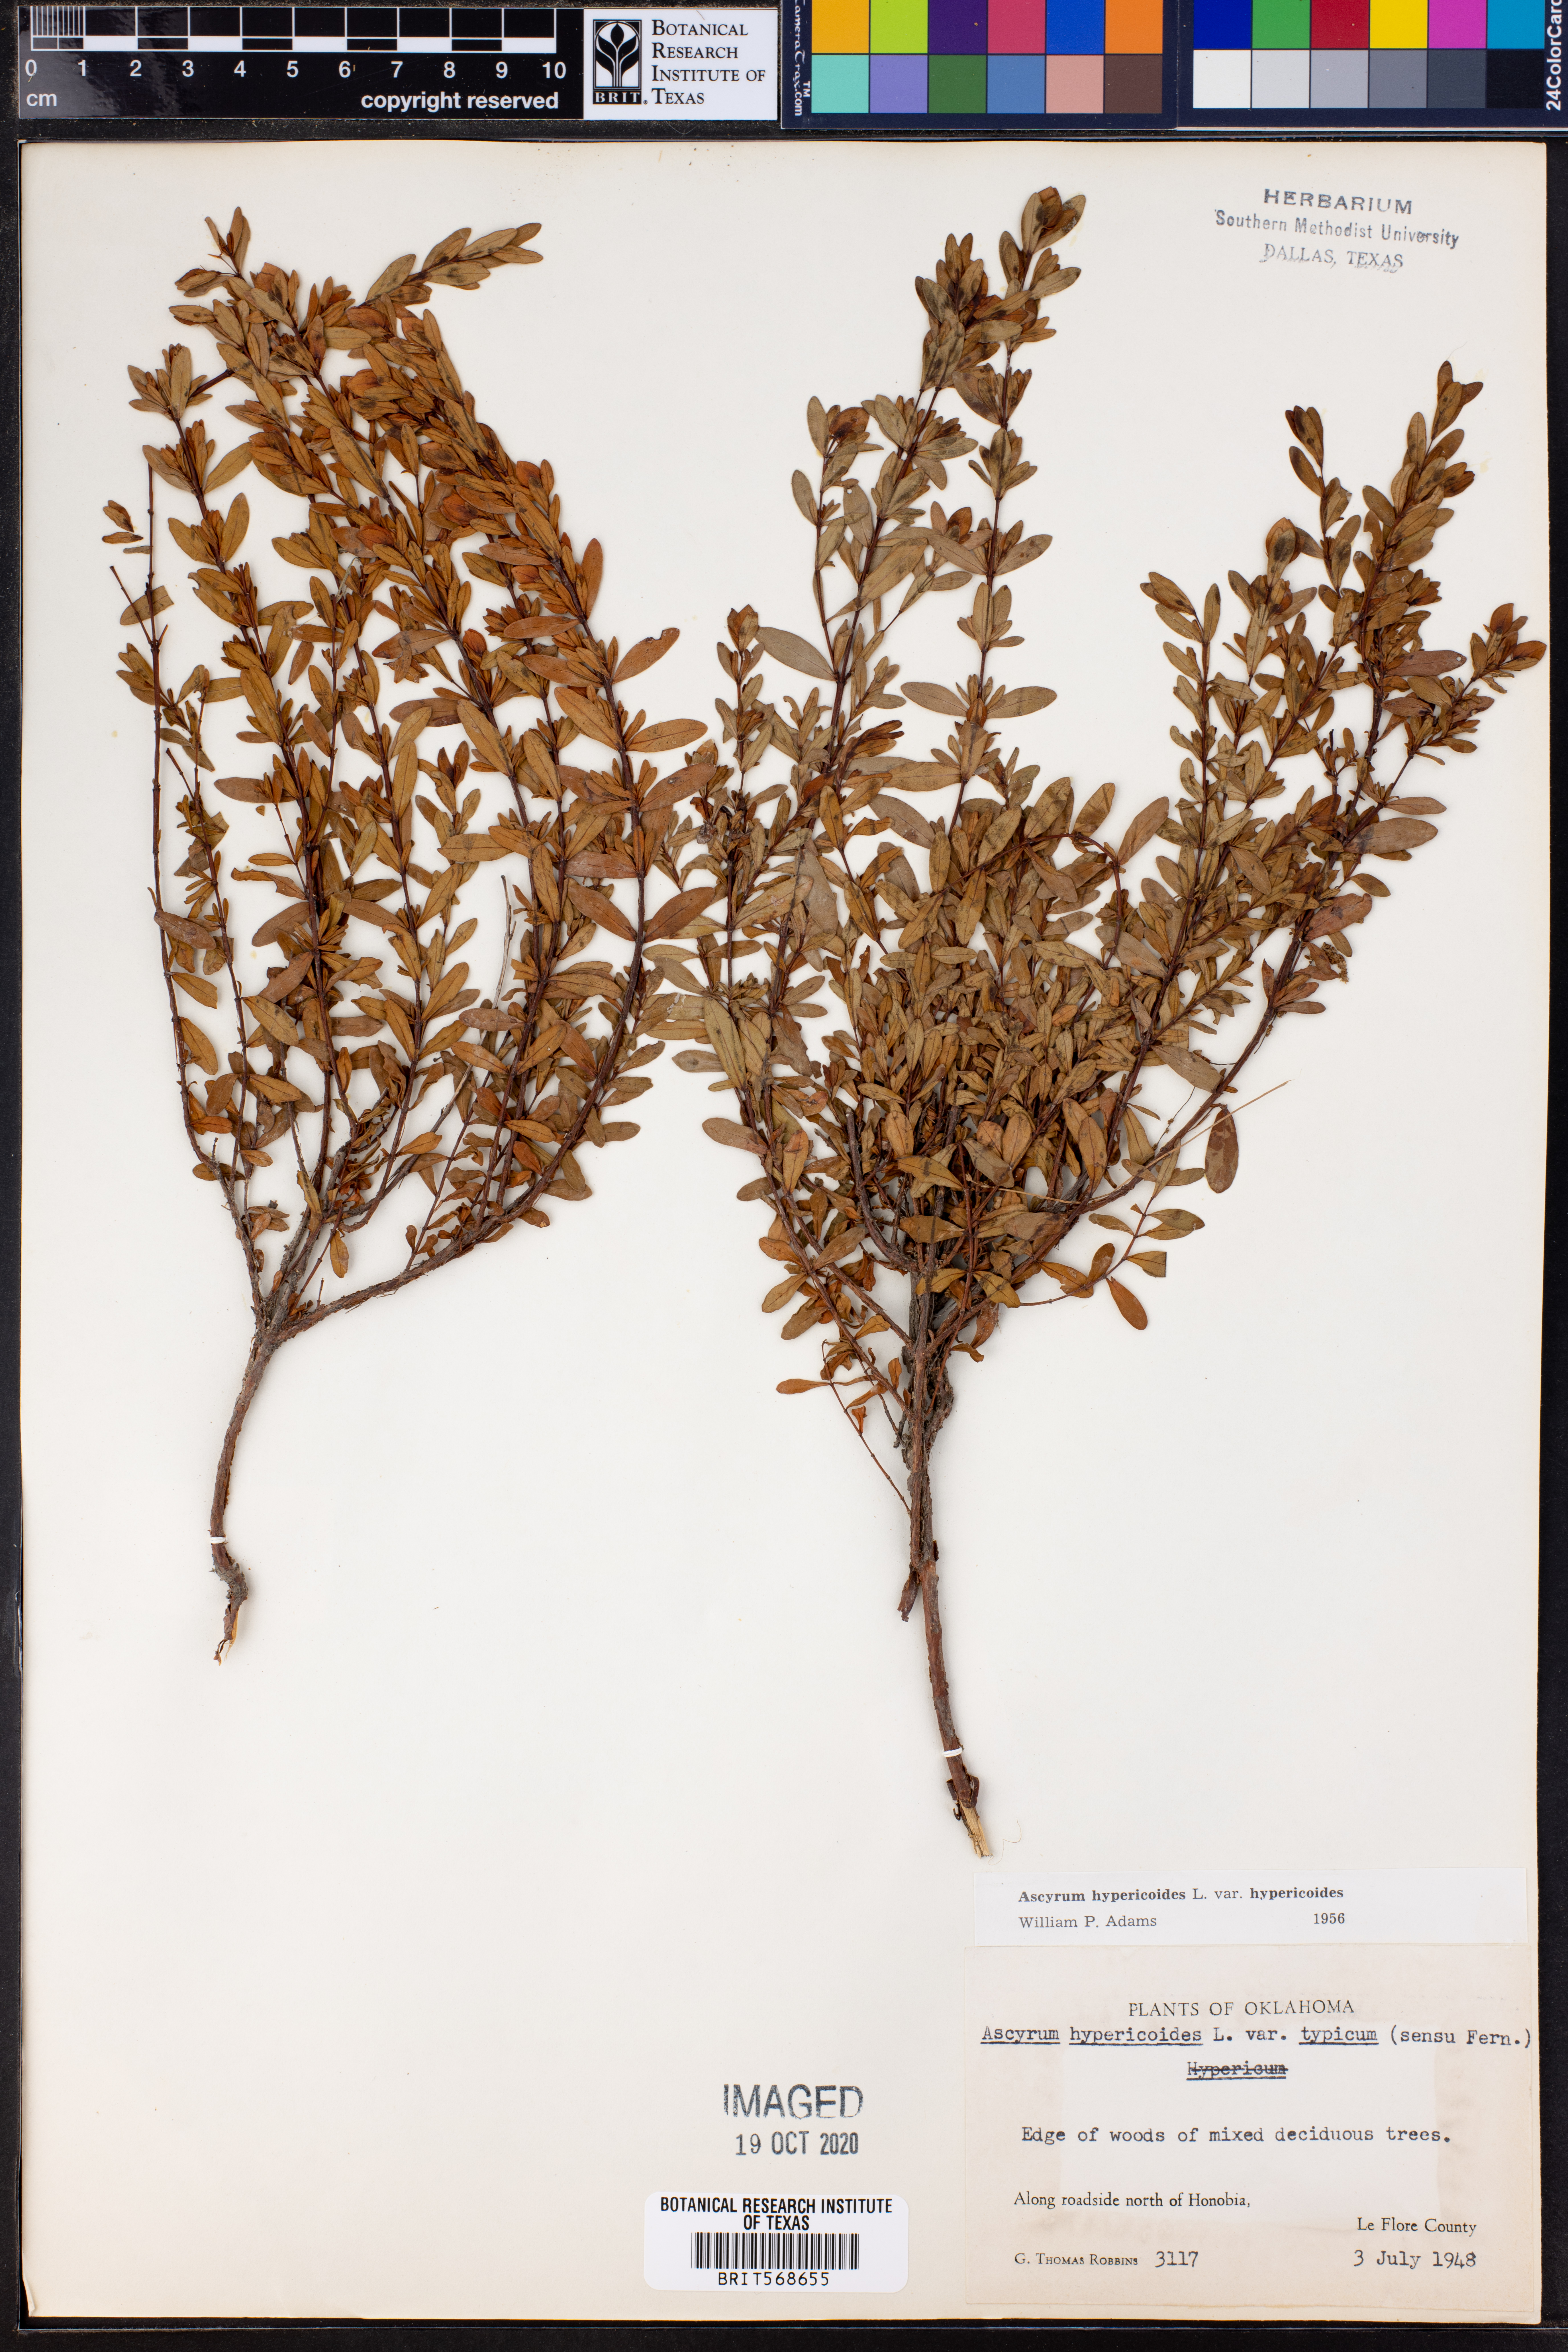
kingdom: Plantae
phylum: Tracheophyta
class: Magnoliopsida
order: Malpighiales
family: Hypericaceae
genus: Hypericum
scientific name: Hypericum hypericoides
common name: St. andrew's cross
